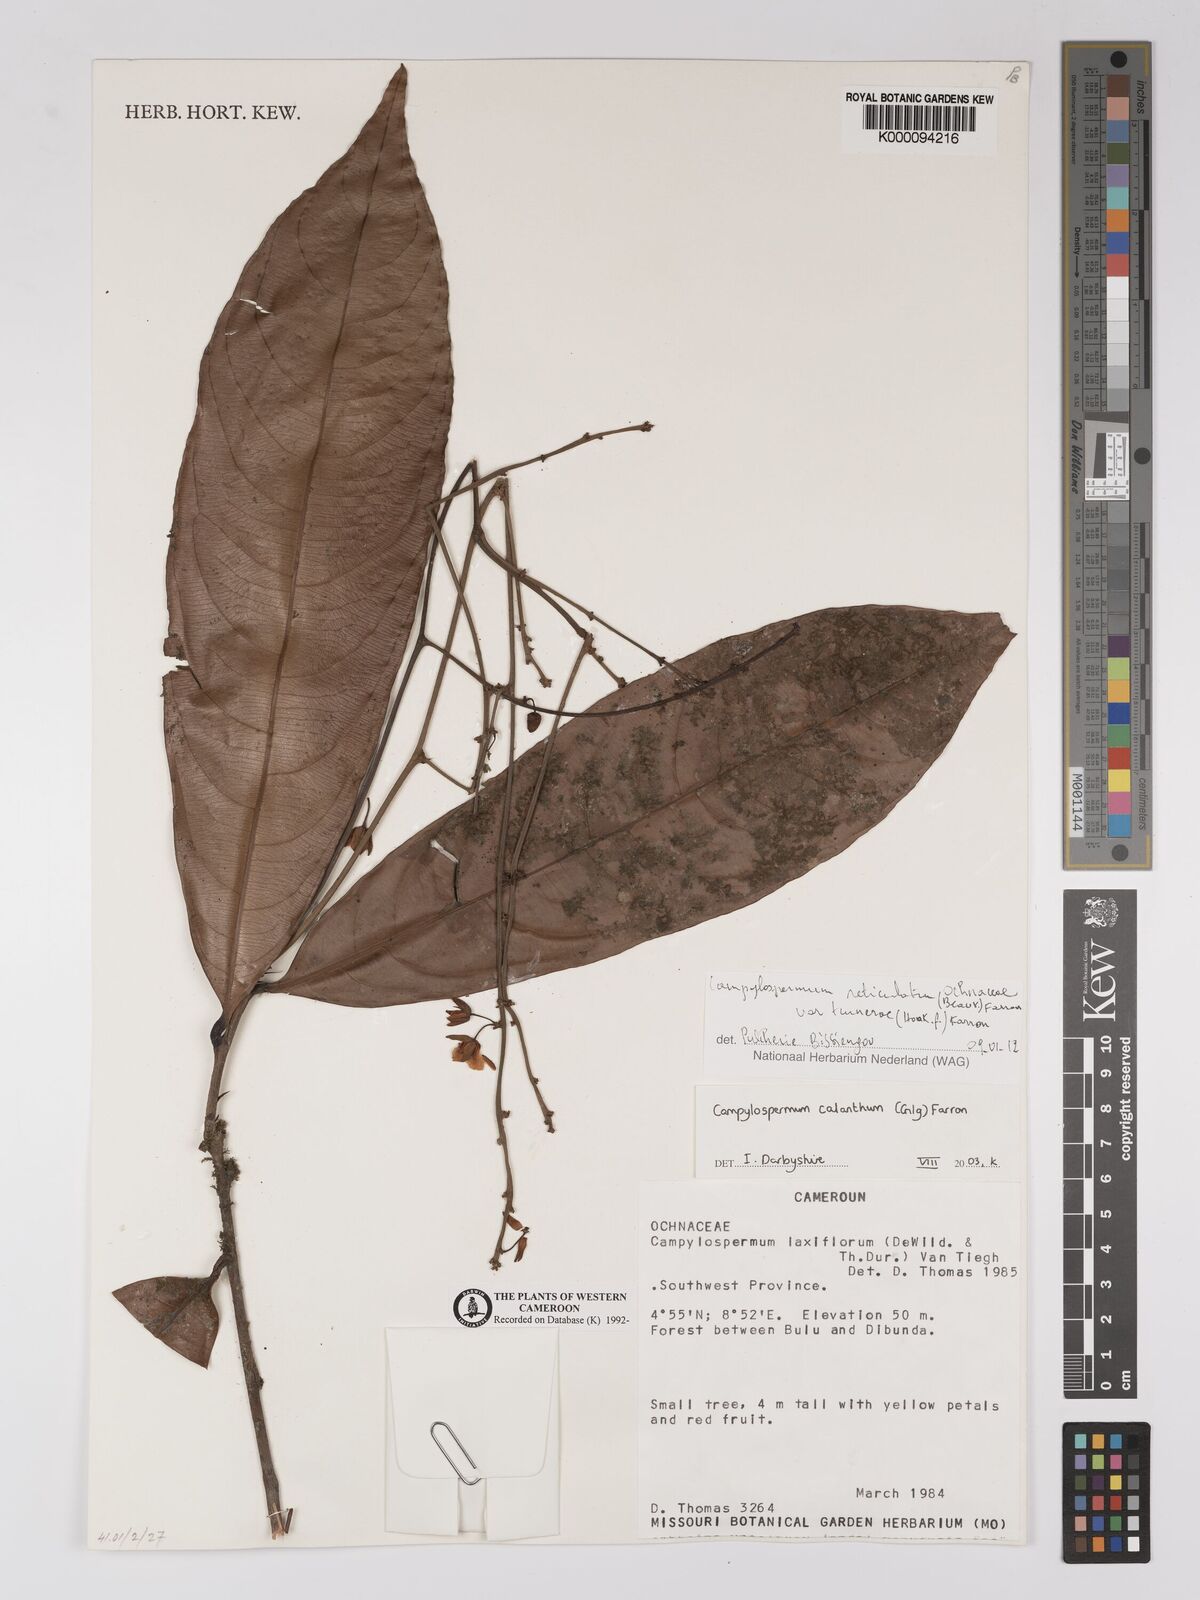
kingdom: Plantae
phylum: Tracheophyta
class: Magnoliopsida
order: Malpighiales
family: Ochnaceae
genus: Campylospermum
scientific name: Campylospermum calanthum
